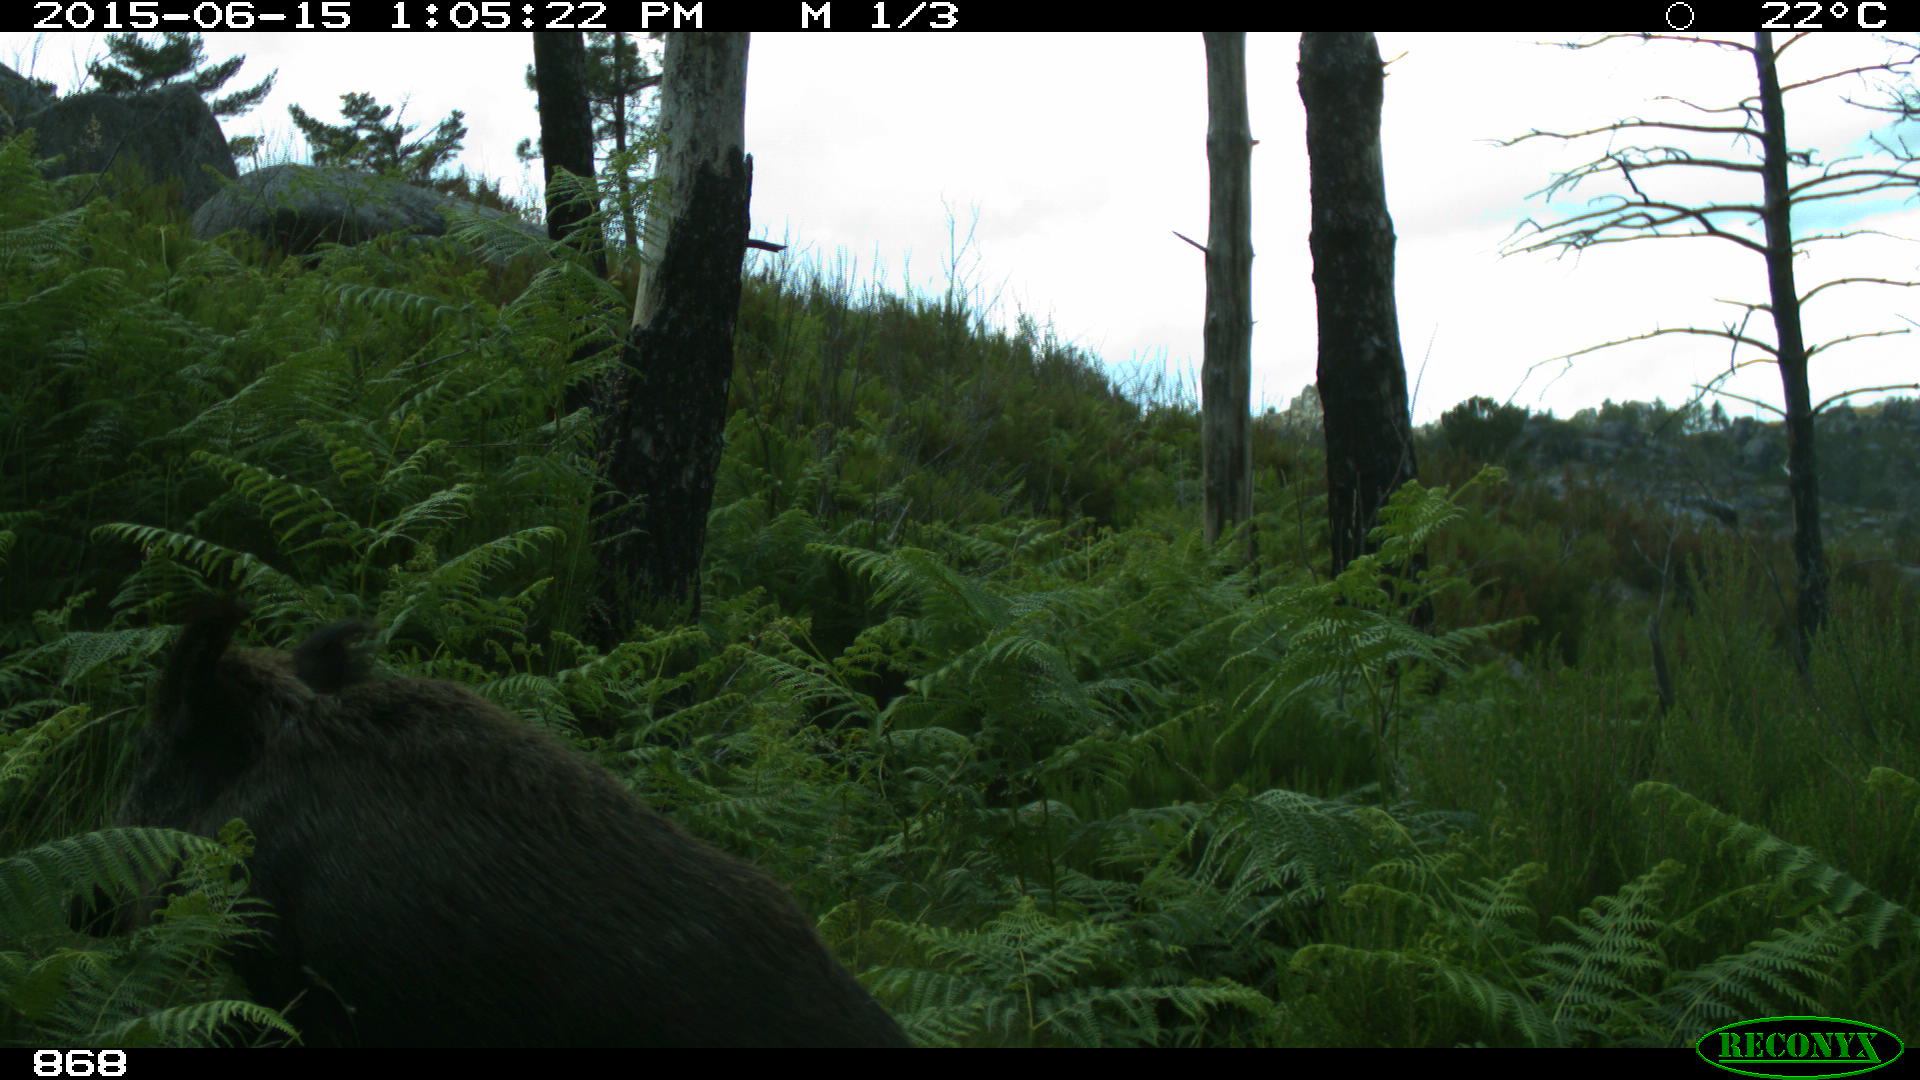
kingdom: Animalia
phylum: Chordata
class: Mammalia
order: Artiodactyla
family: Suidae
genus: Sus
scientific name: Sus scrofa
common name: Wild boar
